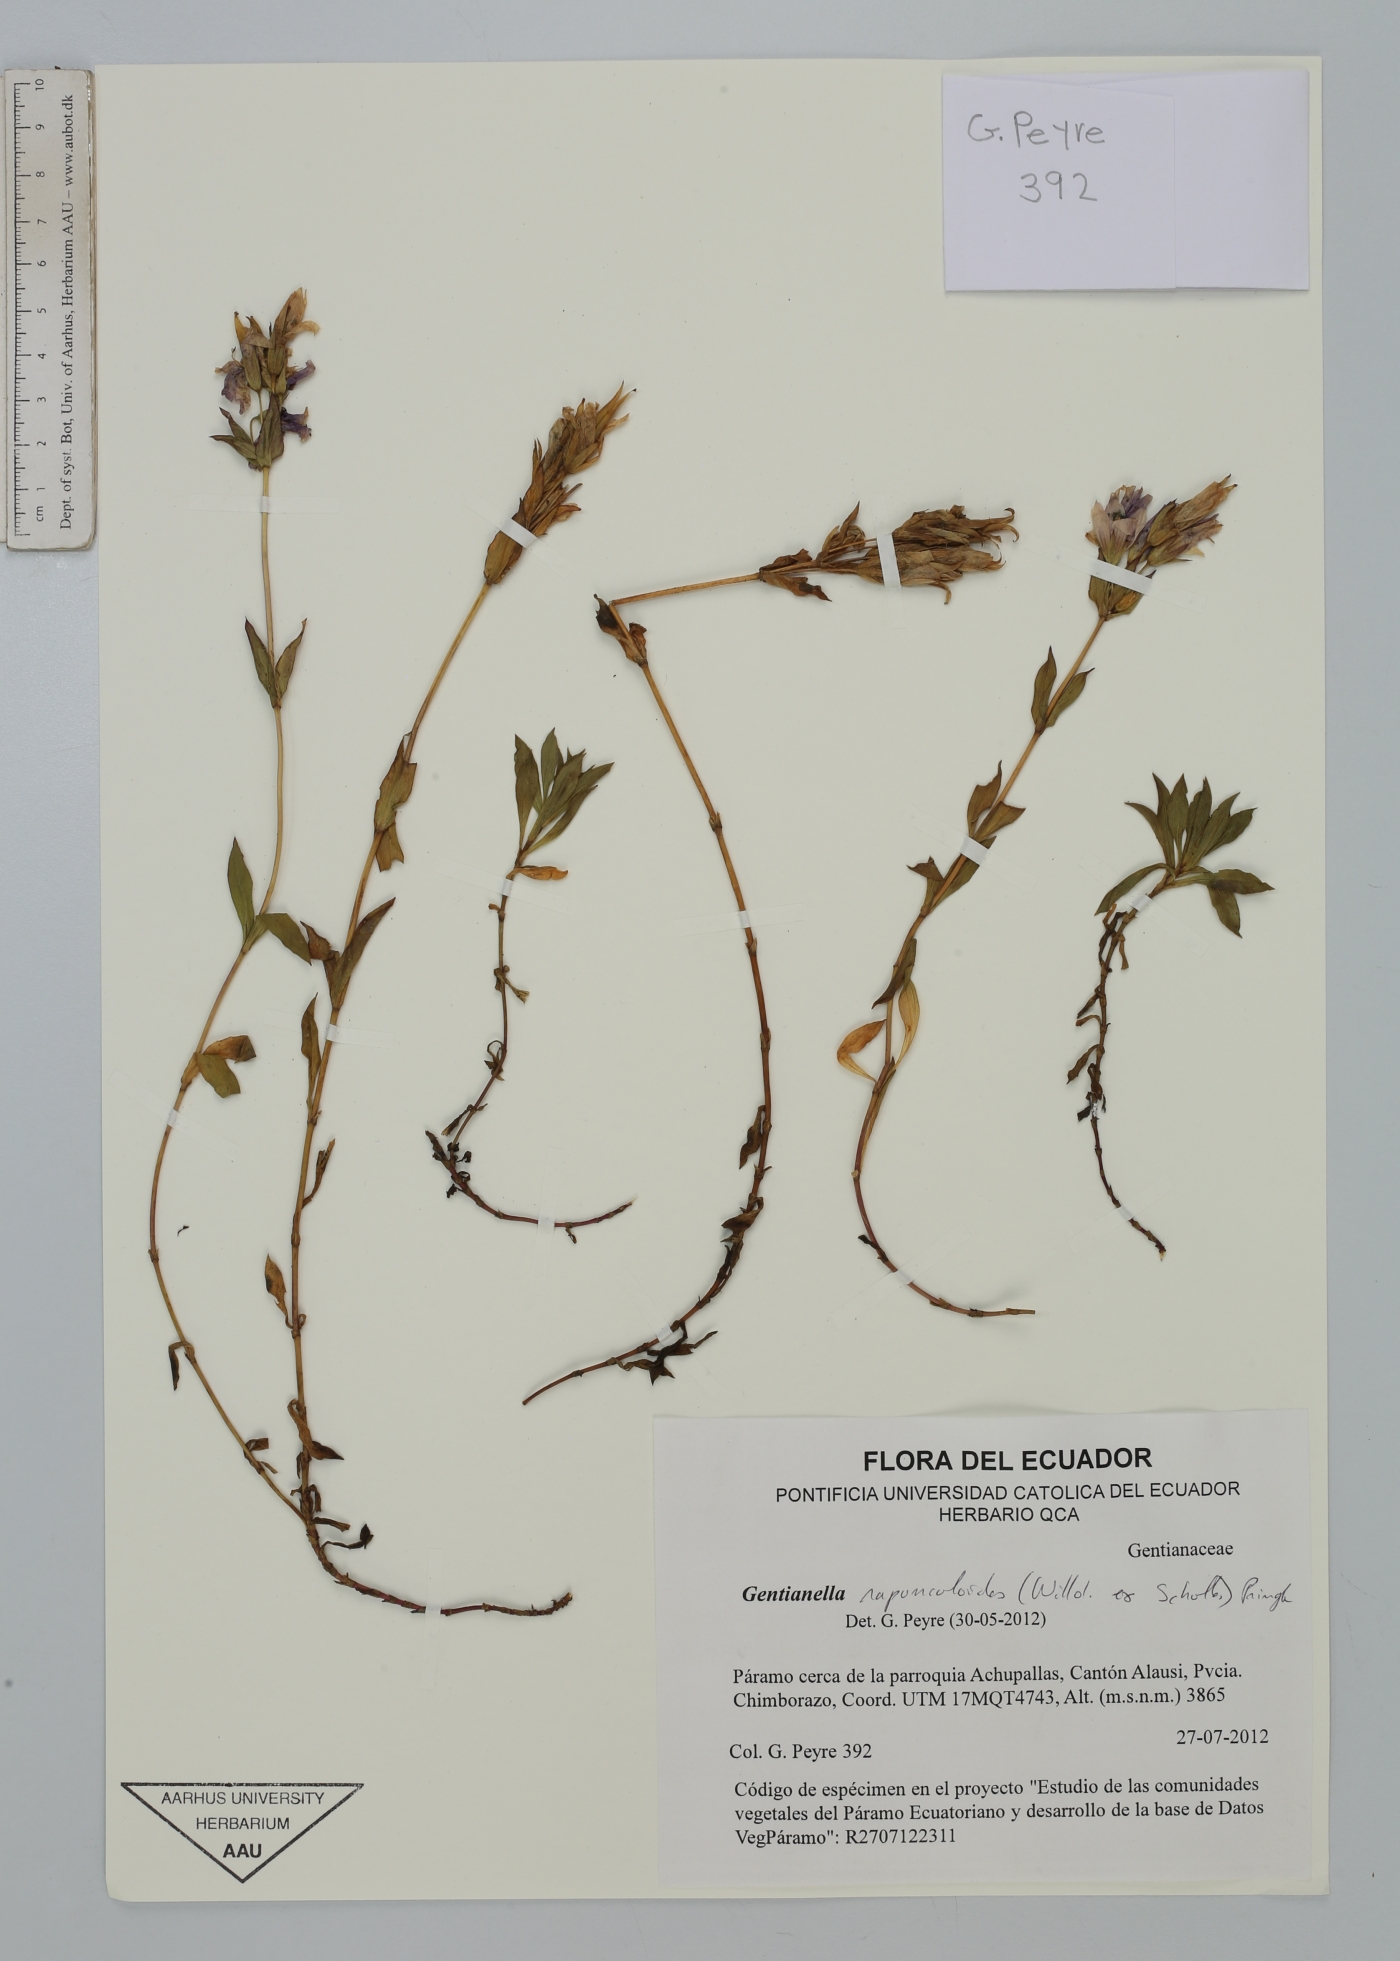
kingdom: Plantae
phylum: Tracheophyta
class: Magnoliopsida
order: Gentianales
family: Gentianaceae
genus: Gentianella
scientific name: Gentianella rapunculoides
